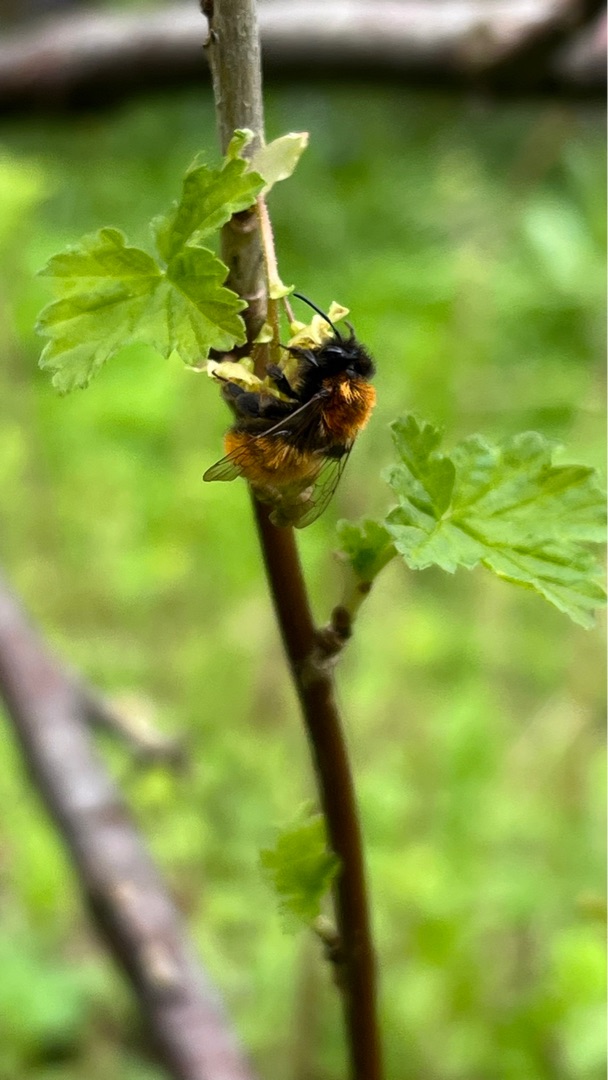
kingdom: Animalia
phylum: Arthropoda
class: Insecta
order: Hymenoptera
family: Andrenidae
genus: Andrena
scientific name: Andrena fulva
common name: Rødpelset jordbi
